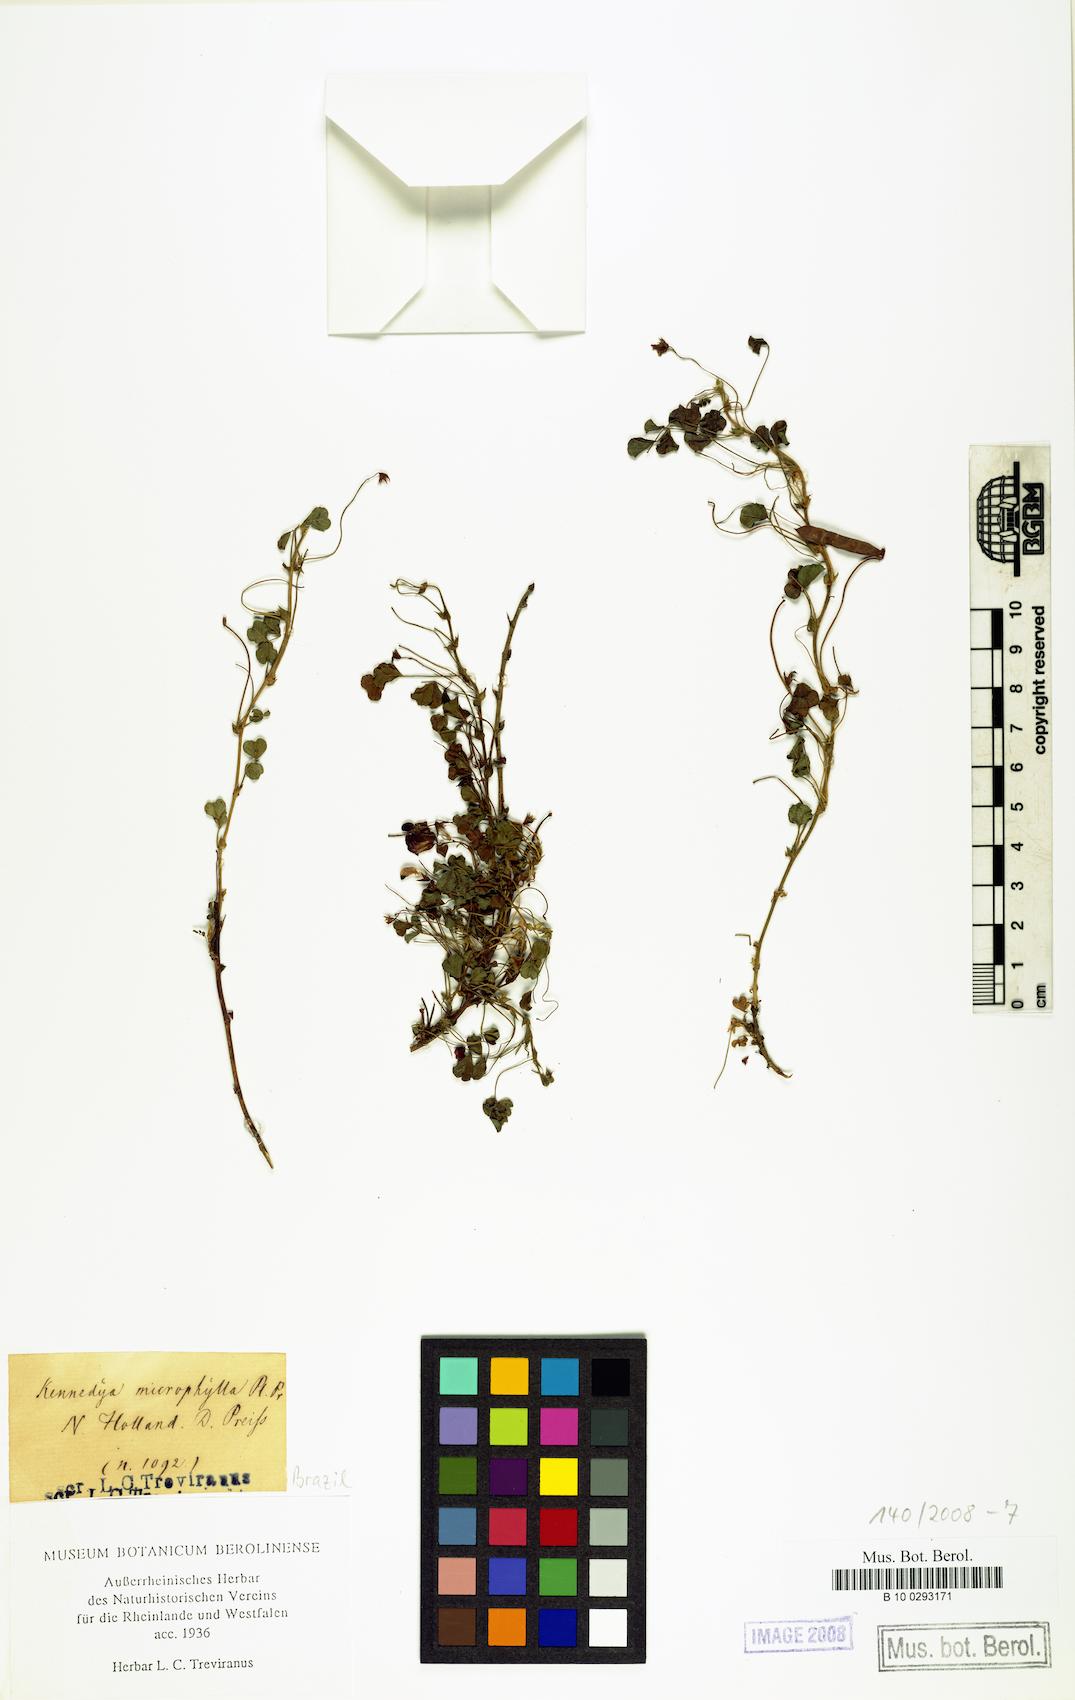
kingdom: Plantae
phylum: Tracheophyta
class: Magnoliopsida
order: Fabales
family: Fabaceae
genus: Kennedia
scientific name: Kennedia microphylla
